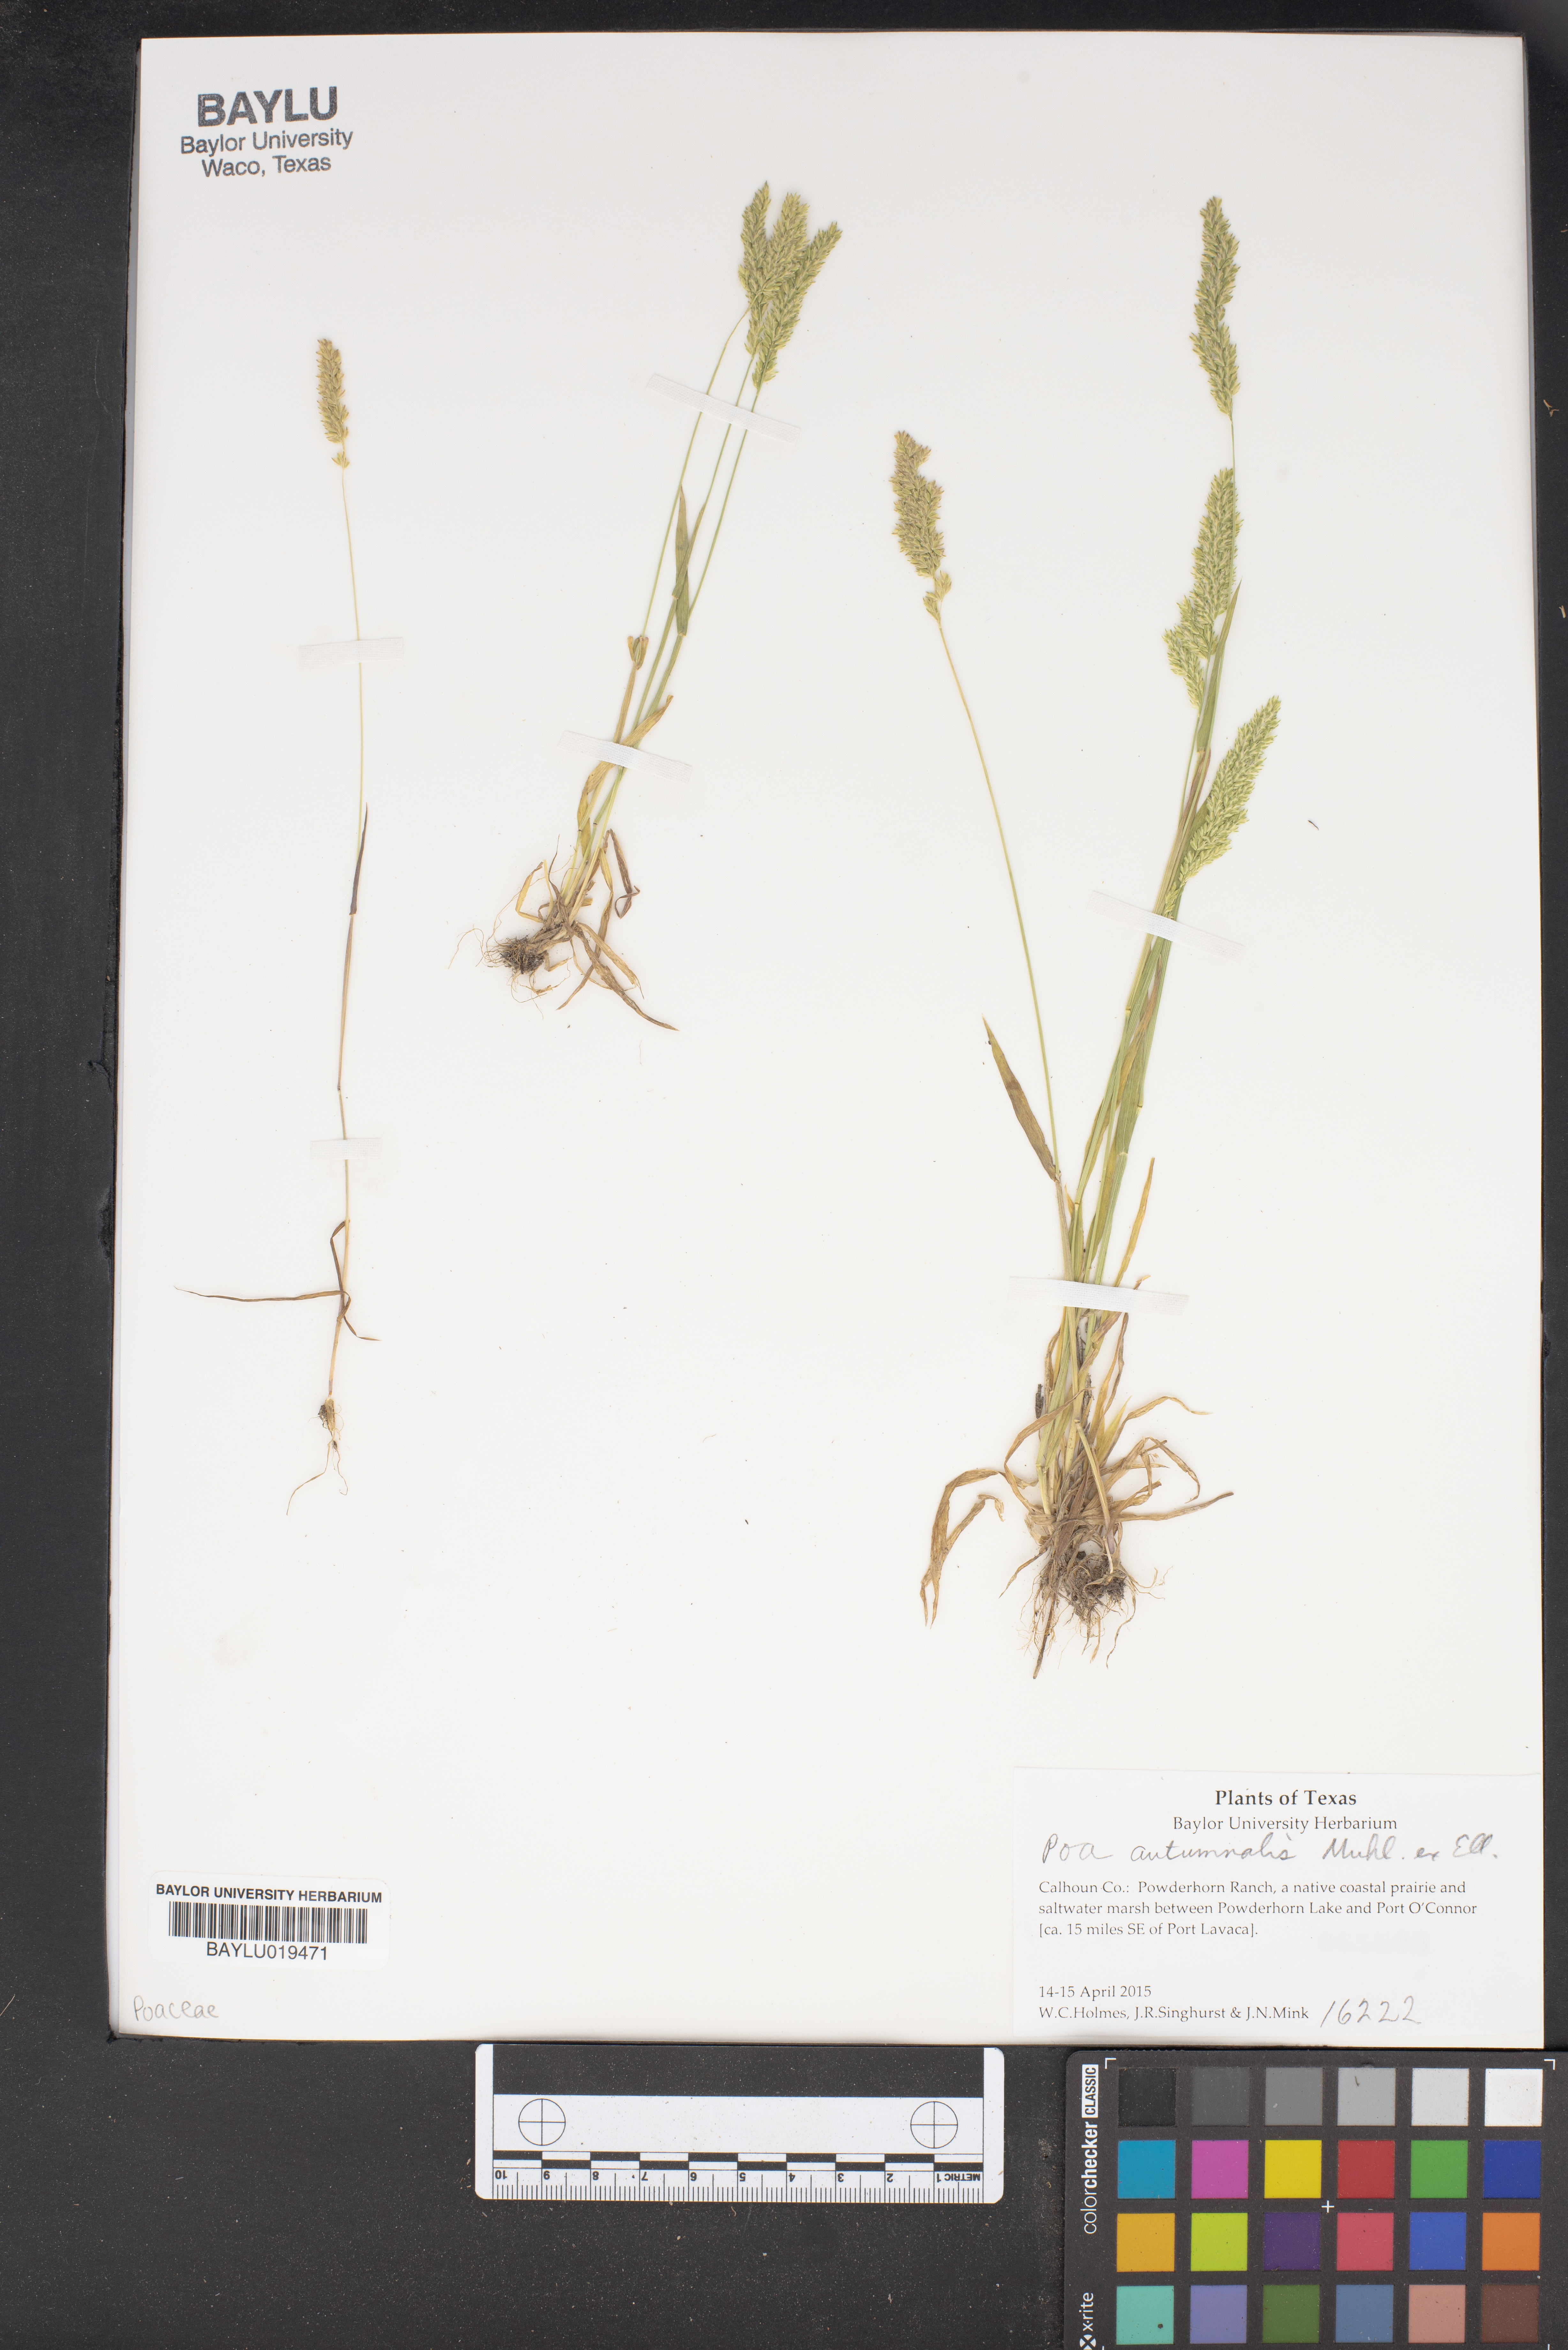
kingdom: Plantae
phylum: Tracheophyta
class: Liliopsida
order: Poales
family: Poaceae
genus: Poa
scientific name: Poa autumnalis
